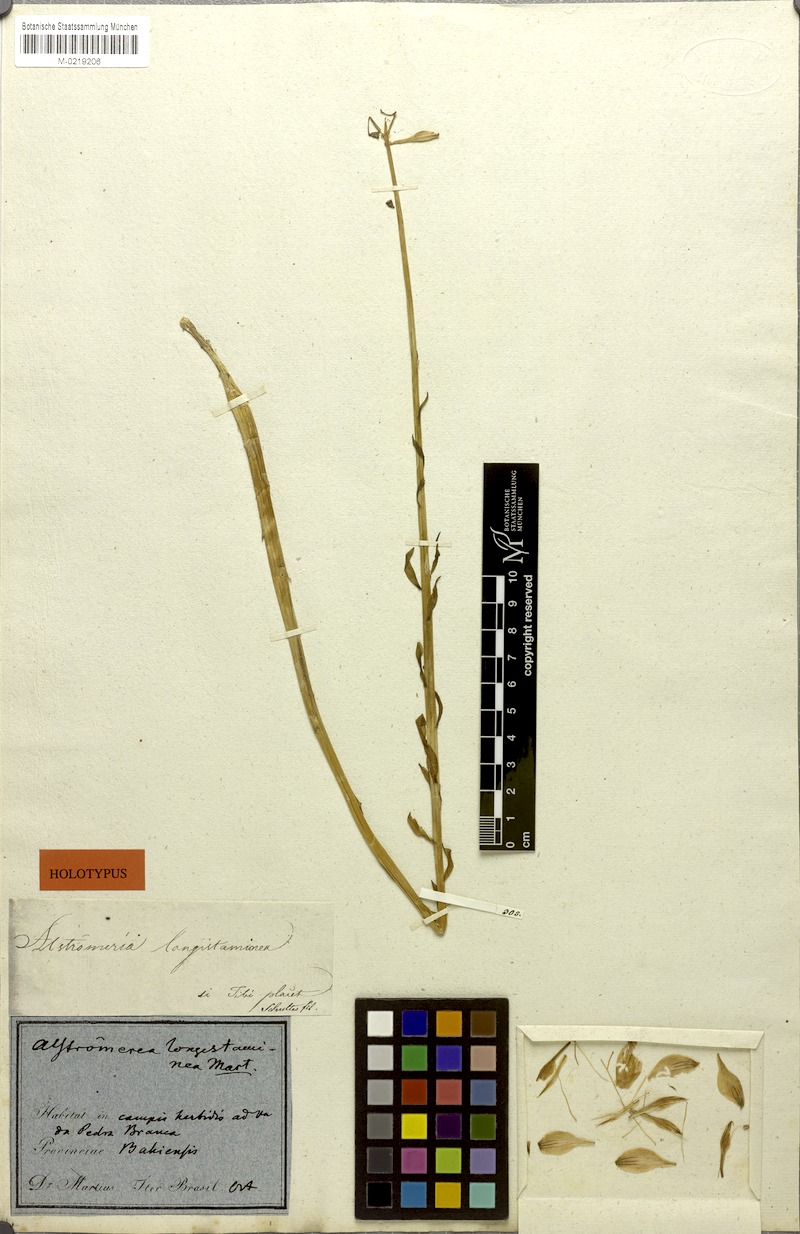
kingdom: Plantae
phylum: Tracheophyta
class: Liliopsida
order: Liliales
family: Alstroemeriaceae
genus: Alstroemeria
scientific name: Alstroemeria longistaminea
